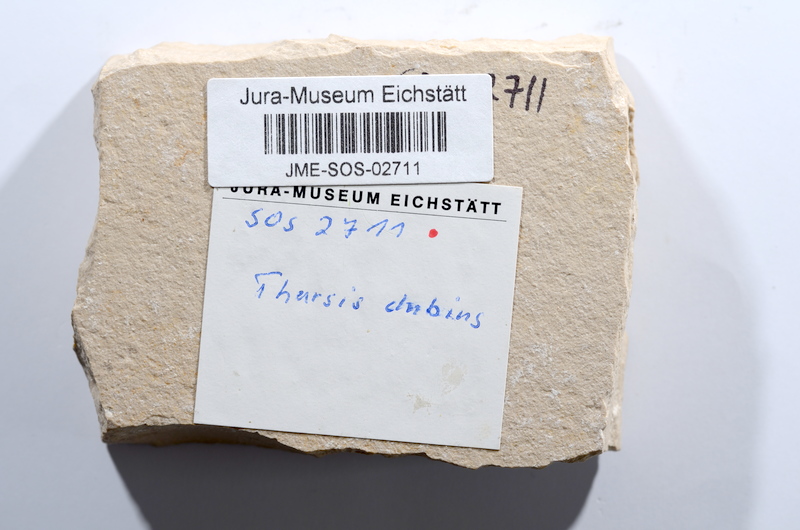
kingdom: Animalia
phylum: Chordata
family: Ascalaboidae
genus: Tharsis
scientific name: Tharsis dubius
